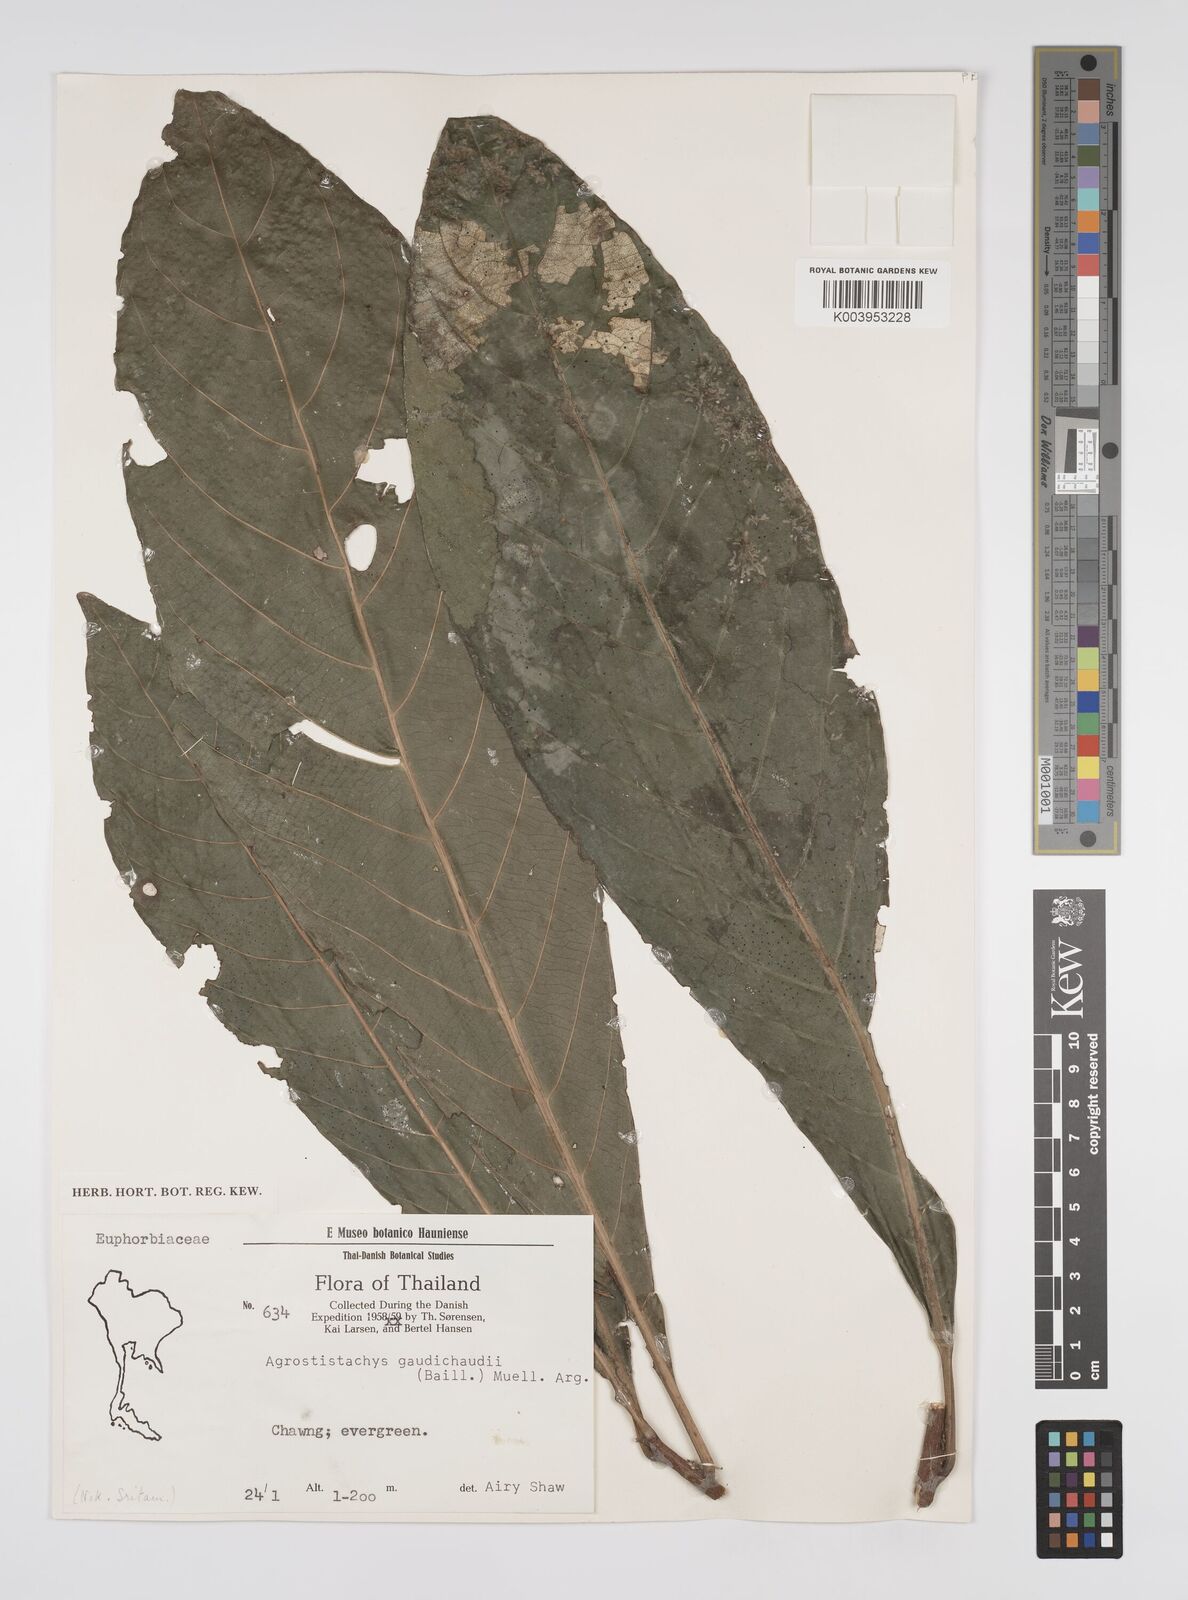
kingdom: Plantae
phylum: Tracheophyta
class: Magnoliopsida
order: Malpighiales
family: Euphorbiaceae
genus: Agrostistachys
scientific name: Agrostistachys gaudichaudii
